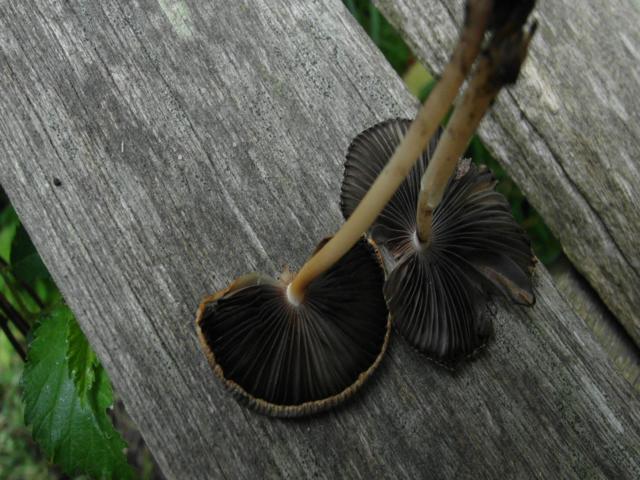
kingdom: Fungi
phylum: Basidiomycota
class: Agaricomycetes
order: Agaricales
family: Psathyrellaceae
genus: Parasola
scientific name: Parasola auricoma
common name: hansens hjulhat
